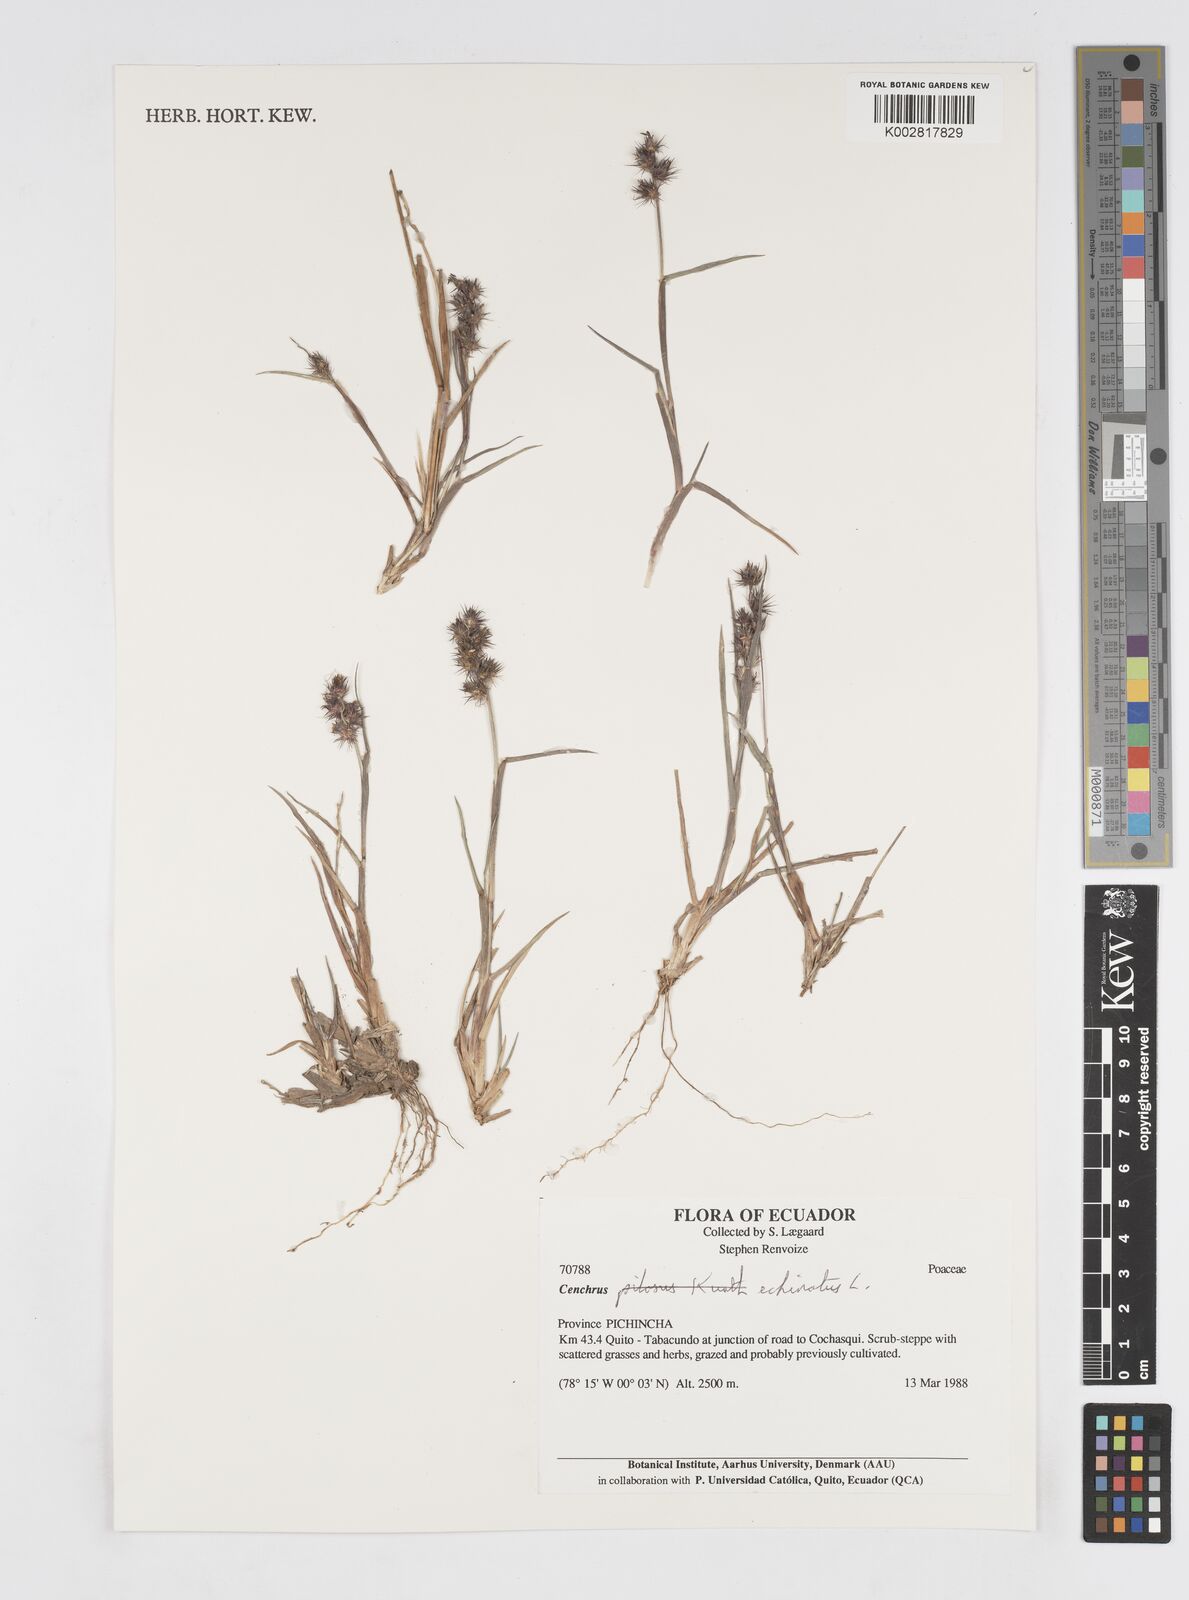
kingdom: Plantae
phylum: Tracheophyta
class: Liliopsida
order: Poales
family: Poaceae
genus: Cenchrus
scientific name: Cenchrus
